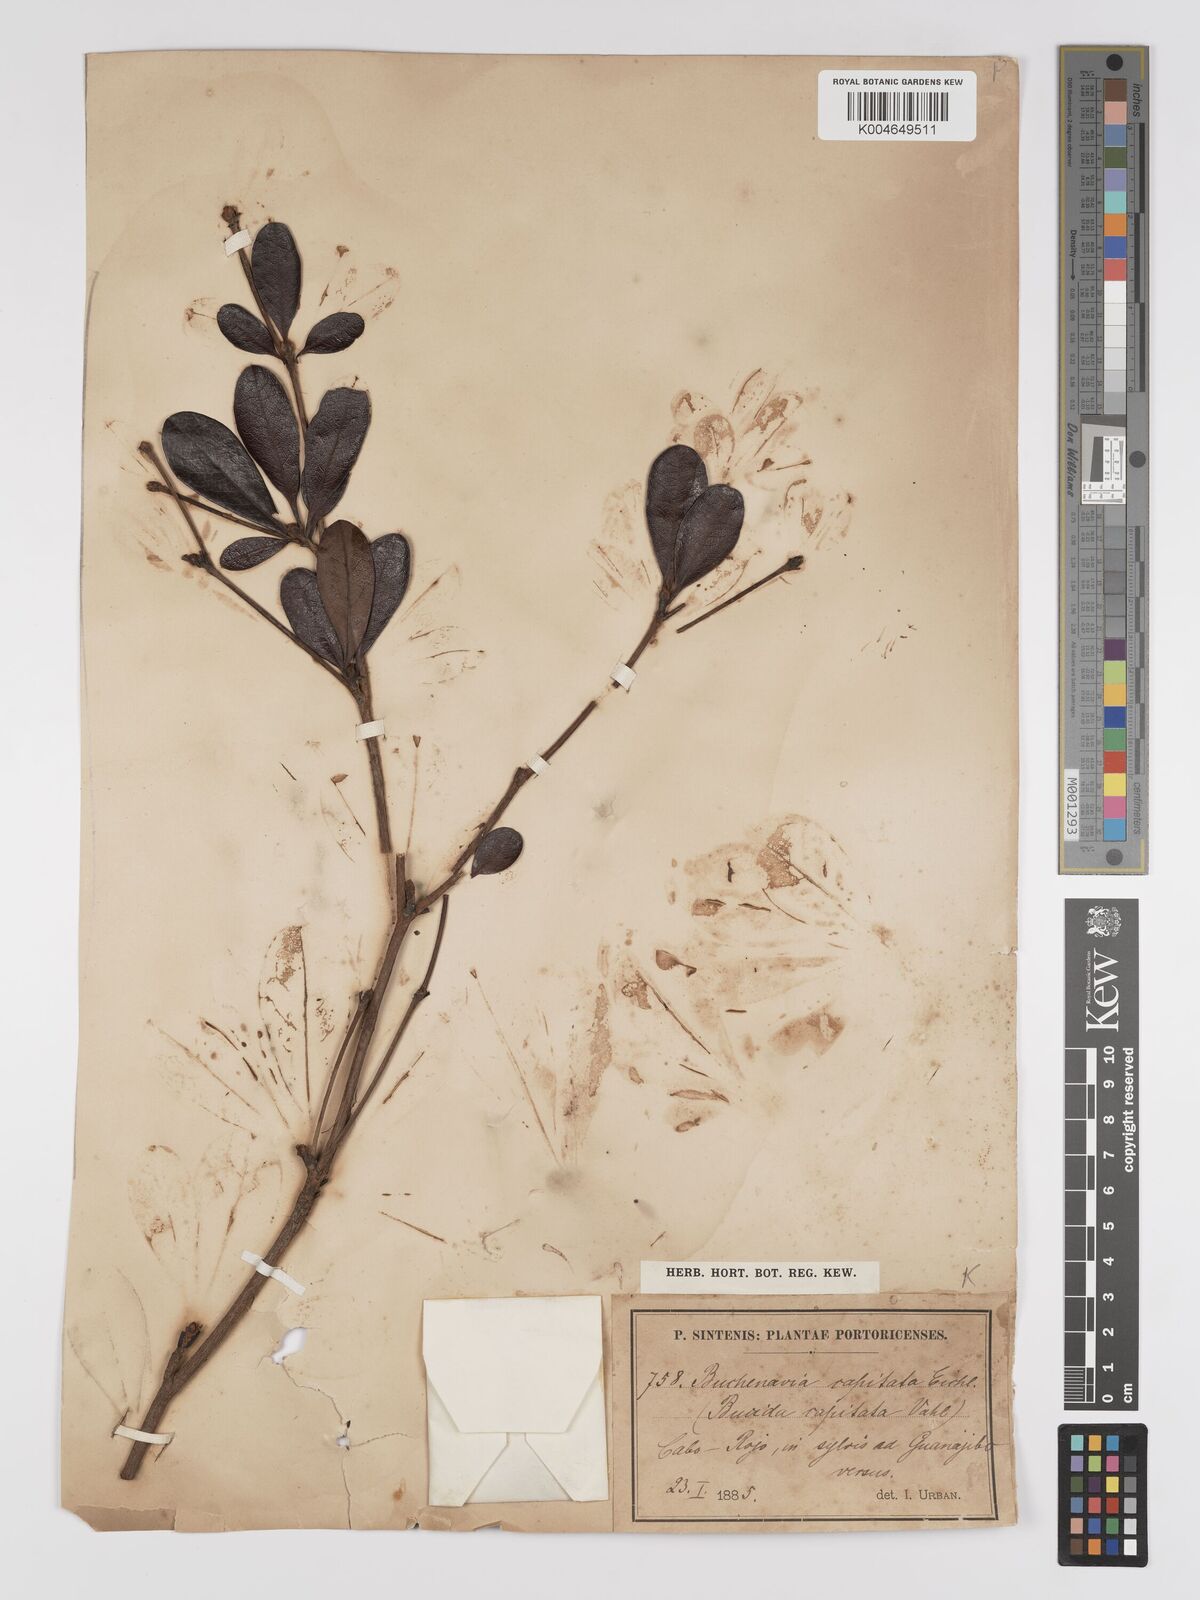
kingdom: Plantae
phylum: Tracheophyta
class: Magnoliopsida
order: Myrtales
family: Combretaceae
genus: Terminalia
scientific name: Terminalia tetraphylla
